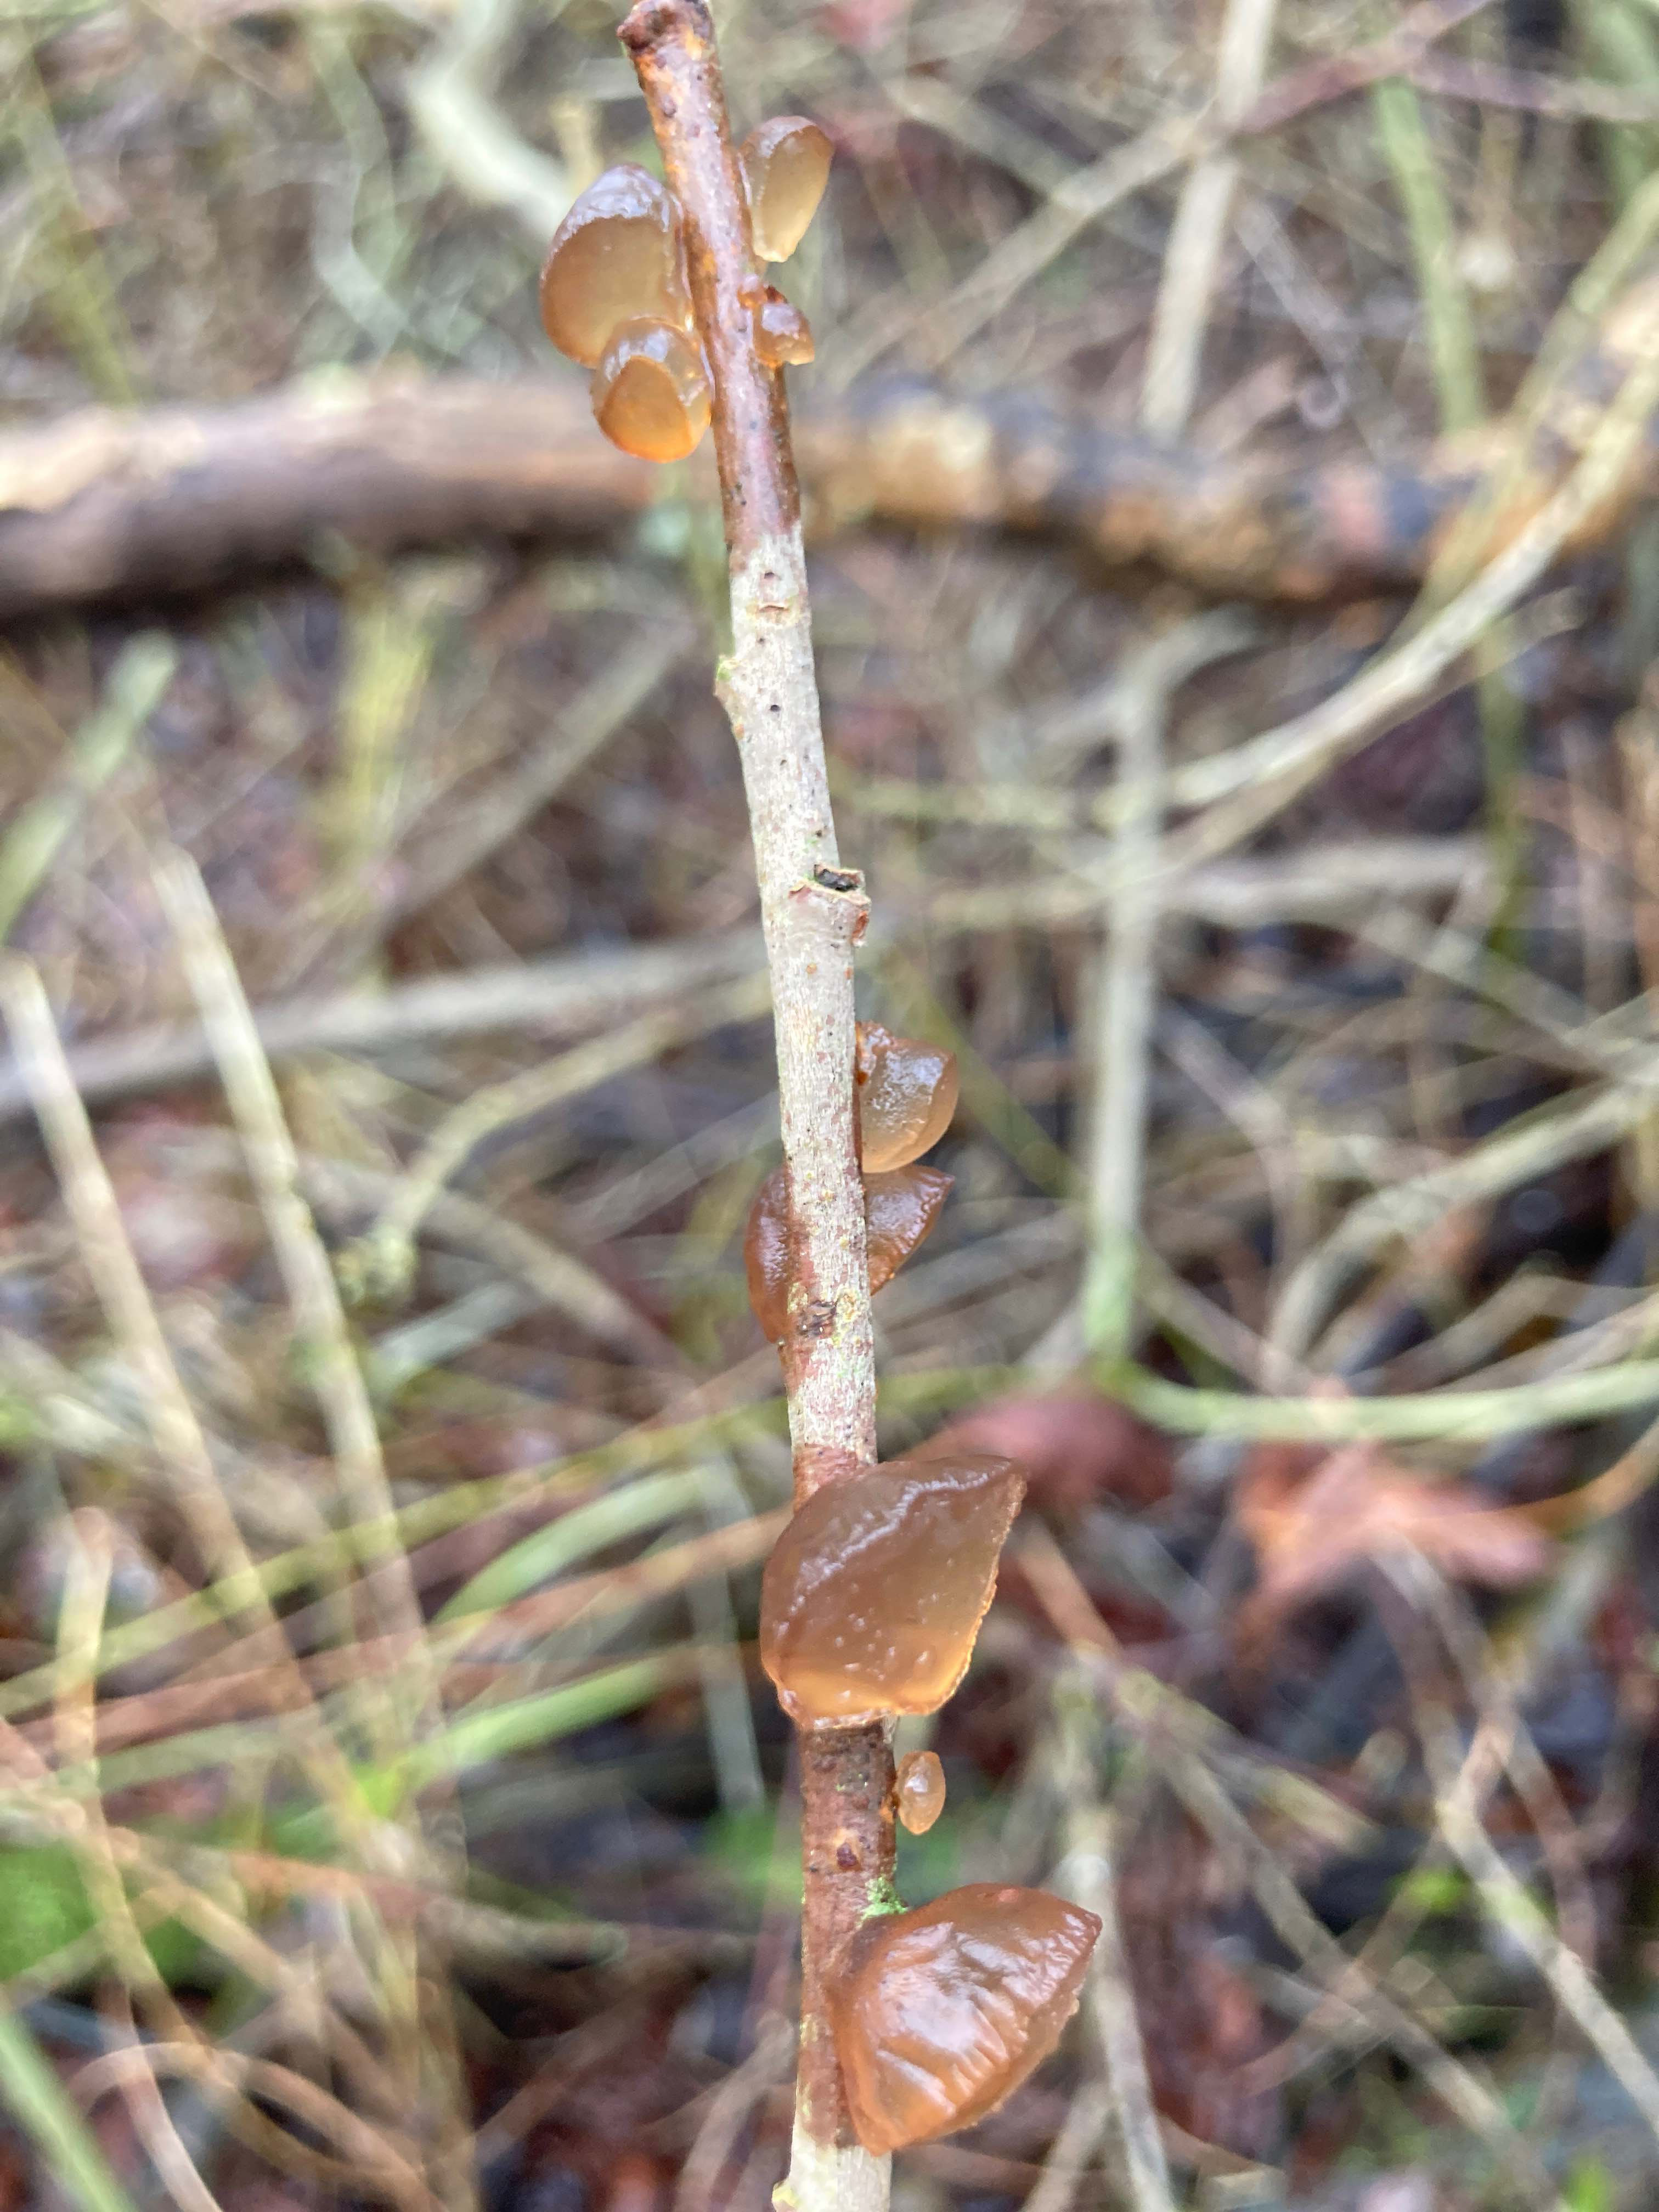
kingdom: Fungi
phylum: Basidiomycota
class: Agaricomycetes
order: Auriculariales
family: Auriculariaceae
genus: Exidia
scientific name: Exidia recisa
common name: pile-bævretop
